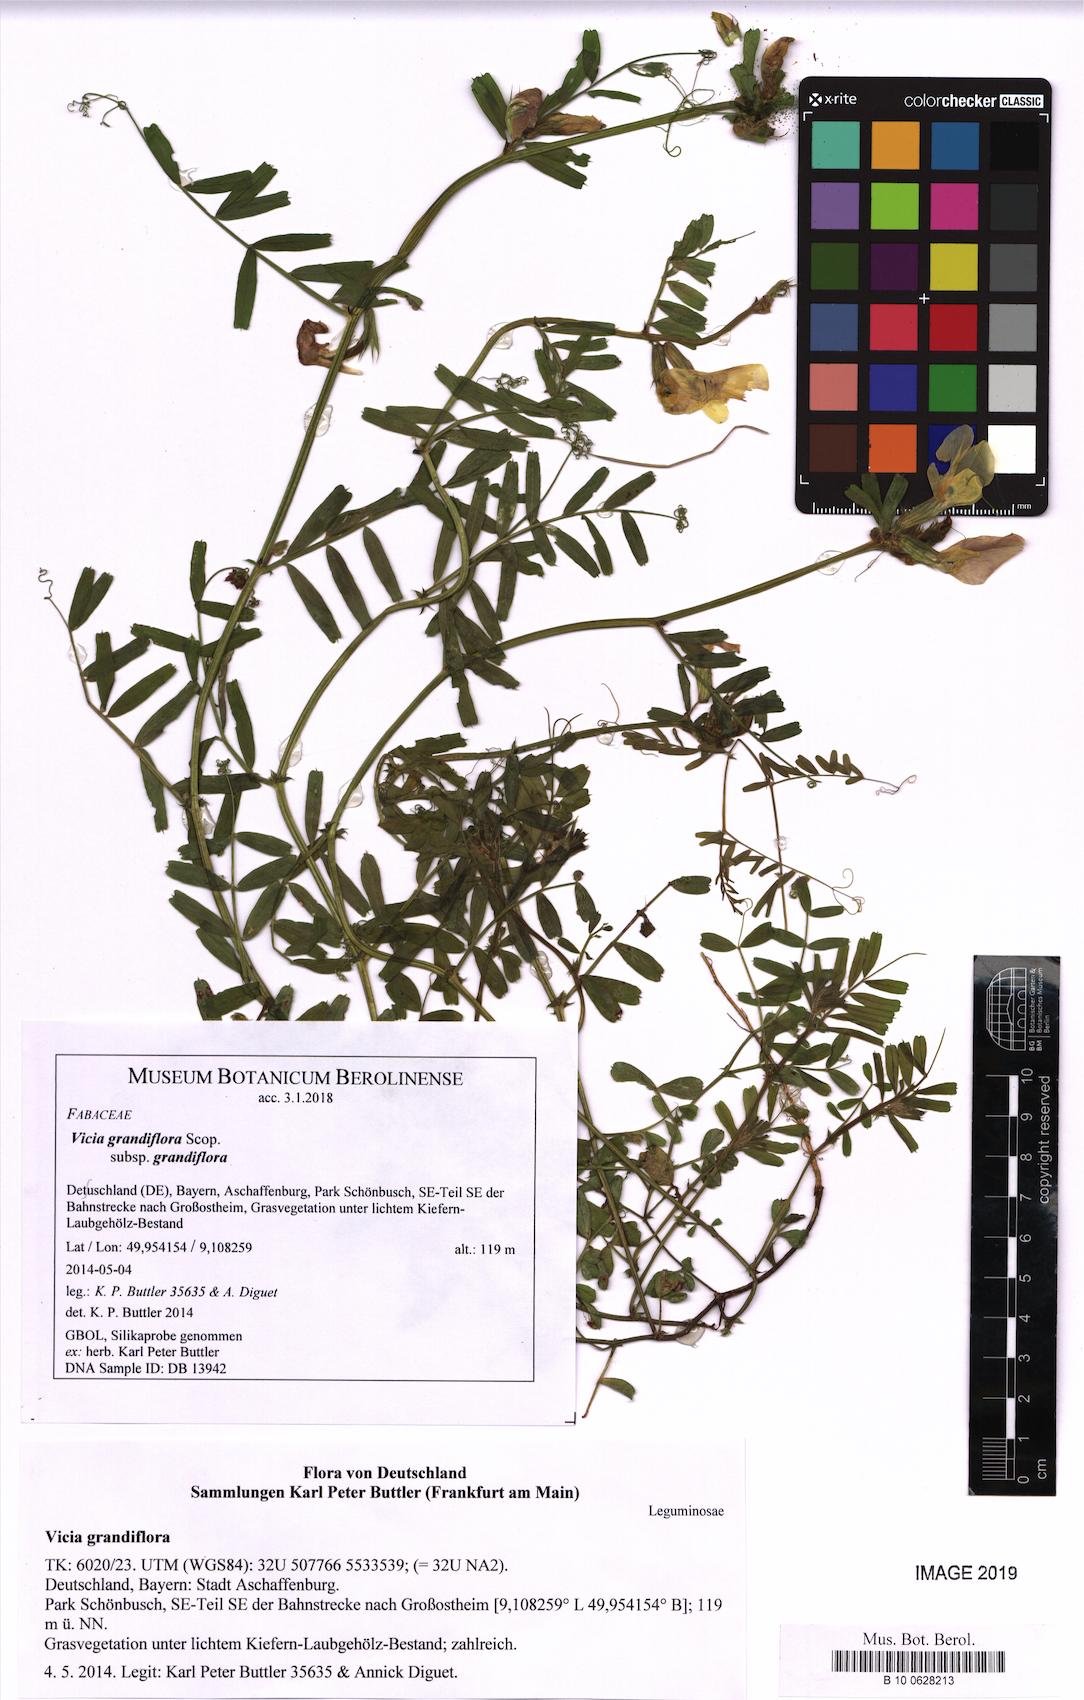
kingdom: Plantae
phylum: Tracheophyta
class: Magnoliopsida
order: Fabales
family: Fabaceae
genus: Vicia
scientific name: Vicia grandiflora
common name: Large yellow vetch
